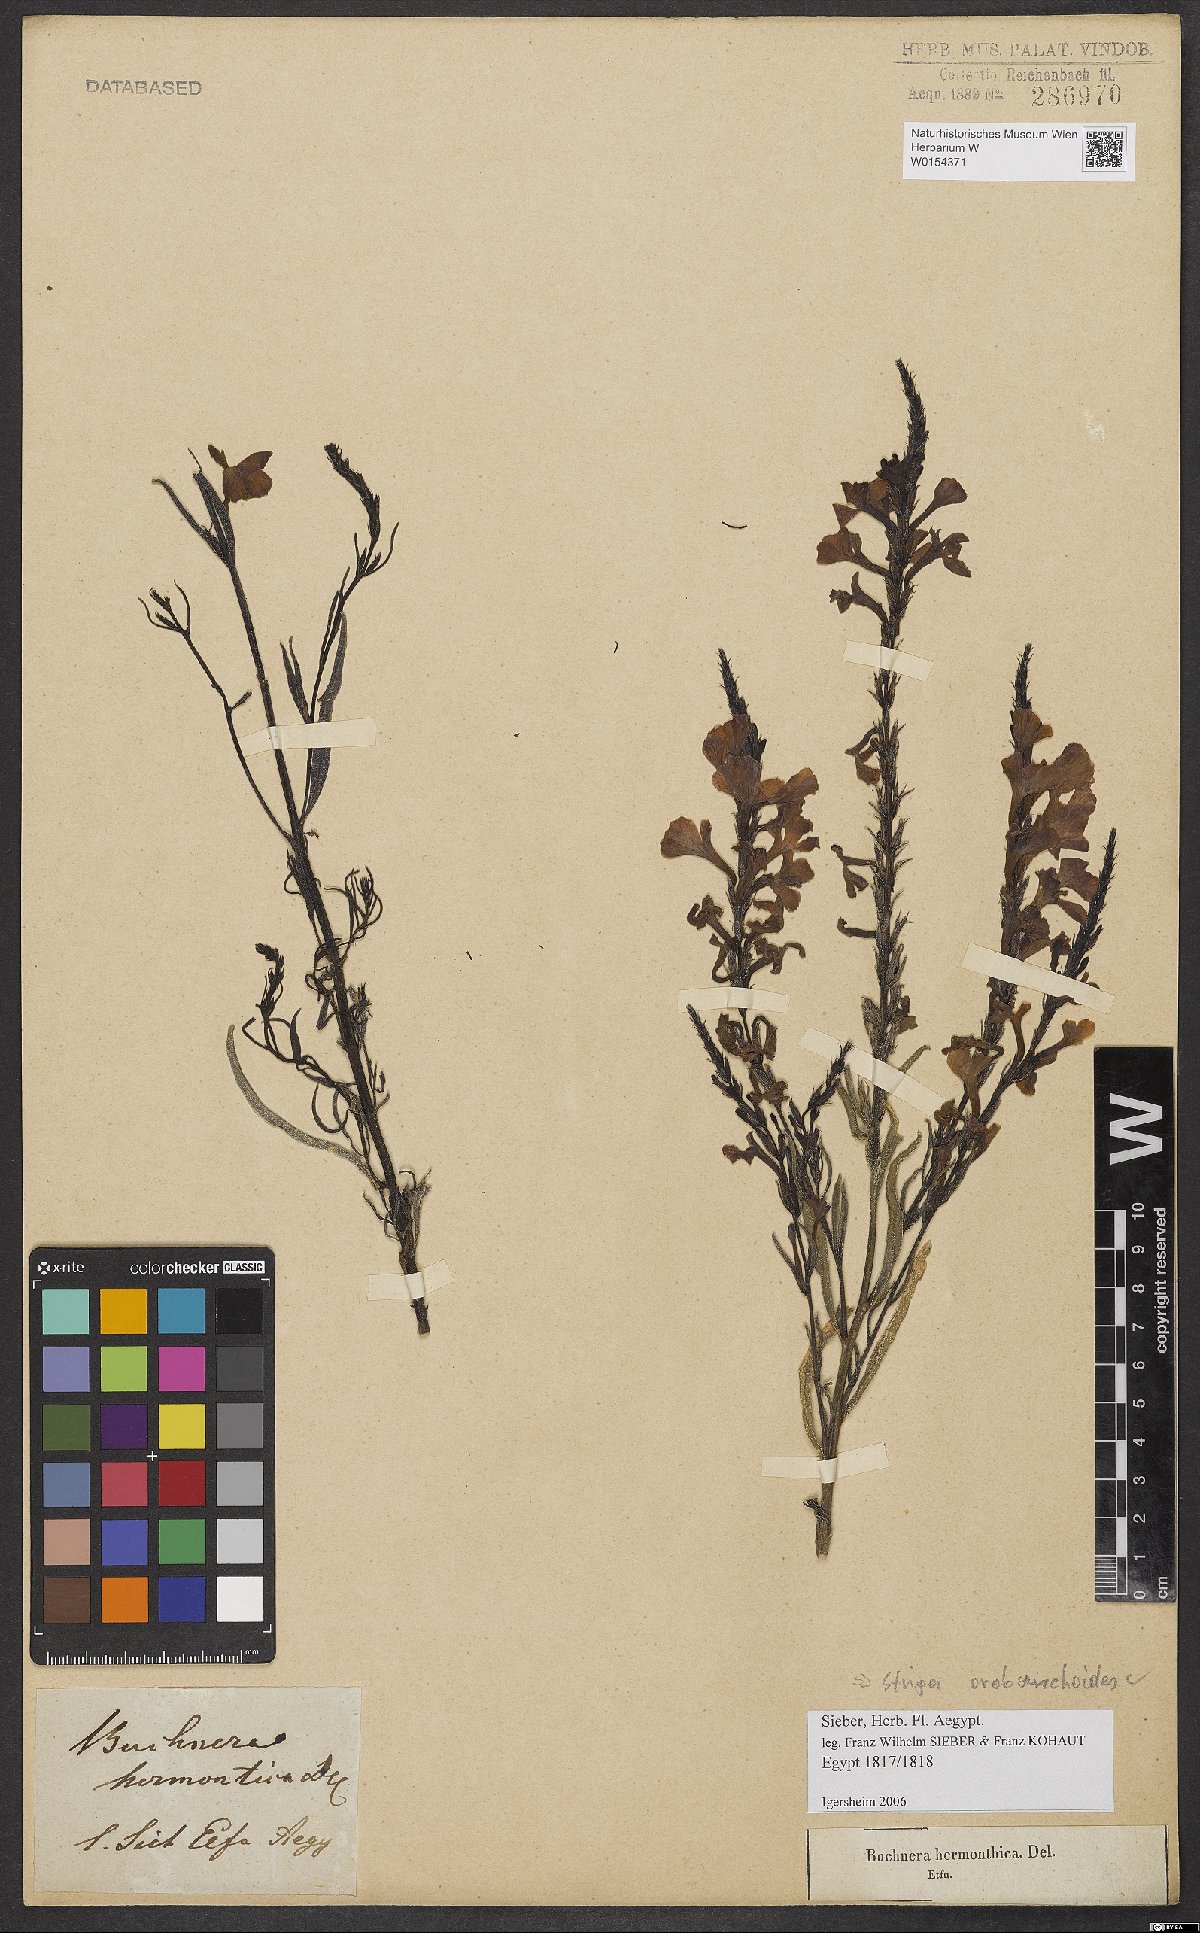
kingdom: Plantae
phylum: Tracheophyta
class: Magnoliopsida
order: Lamiales
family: Orobanchaceae
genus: Striga
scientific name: Striga barthlottii
